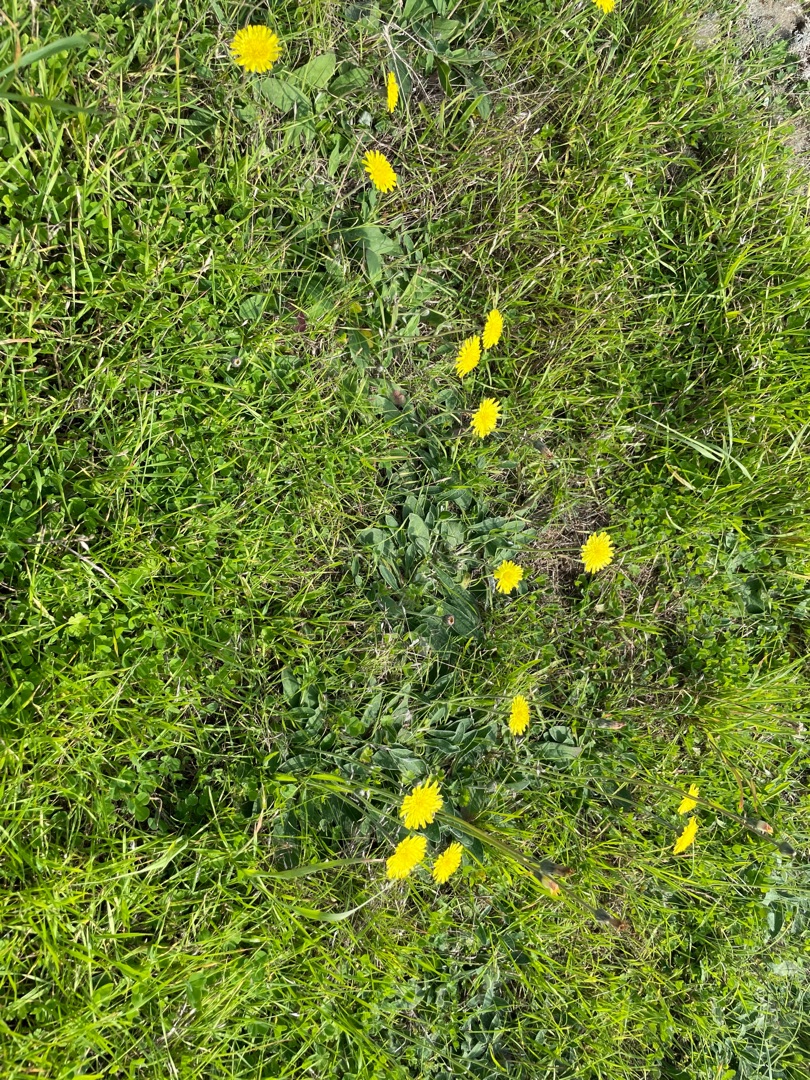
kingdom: Plantae
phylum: Tracheophyta
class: Magnoliopsida
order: Asterales
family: Asteraceae
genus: Pilosella
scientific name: Pilosella officinarum
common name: Håret høgeurt
